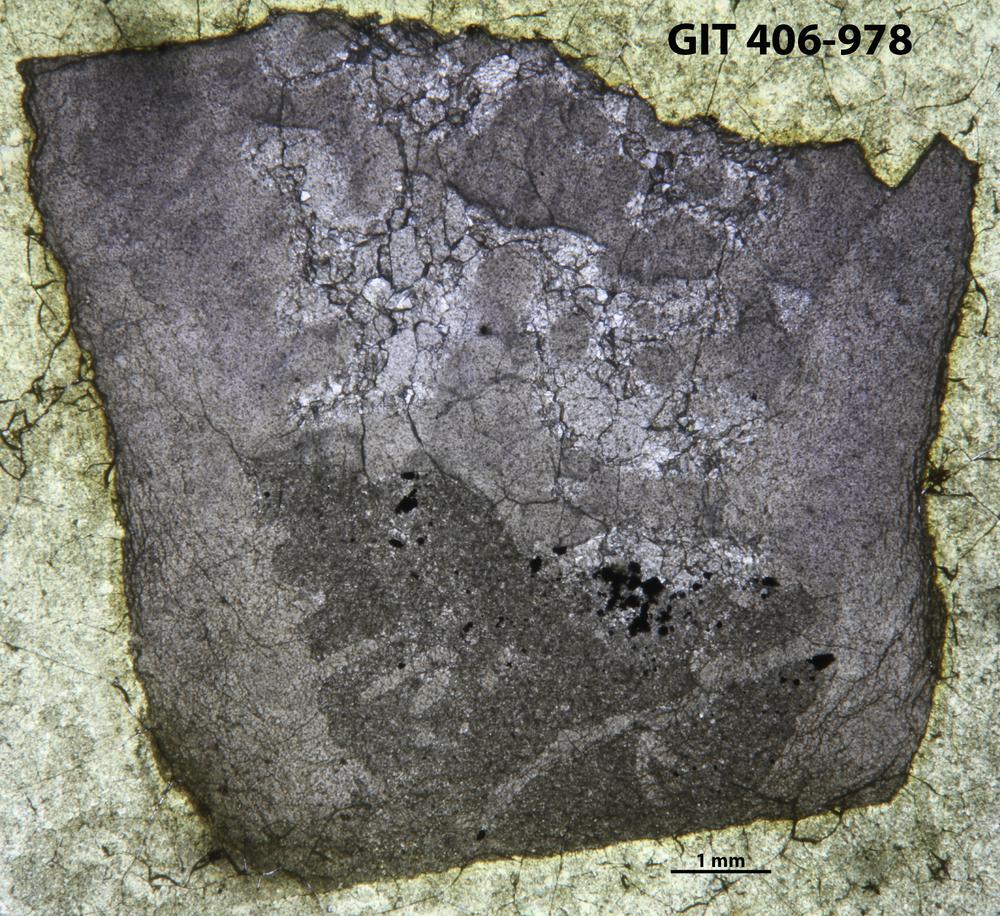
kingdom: Animalia
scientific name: Animalia
